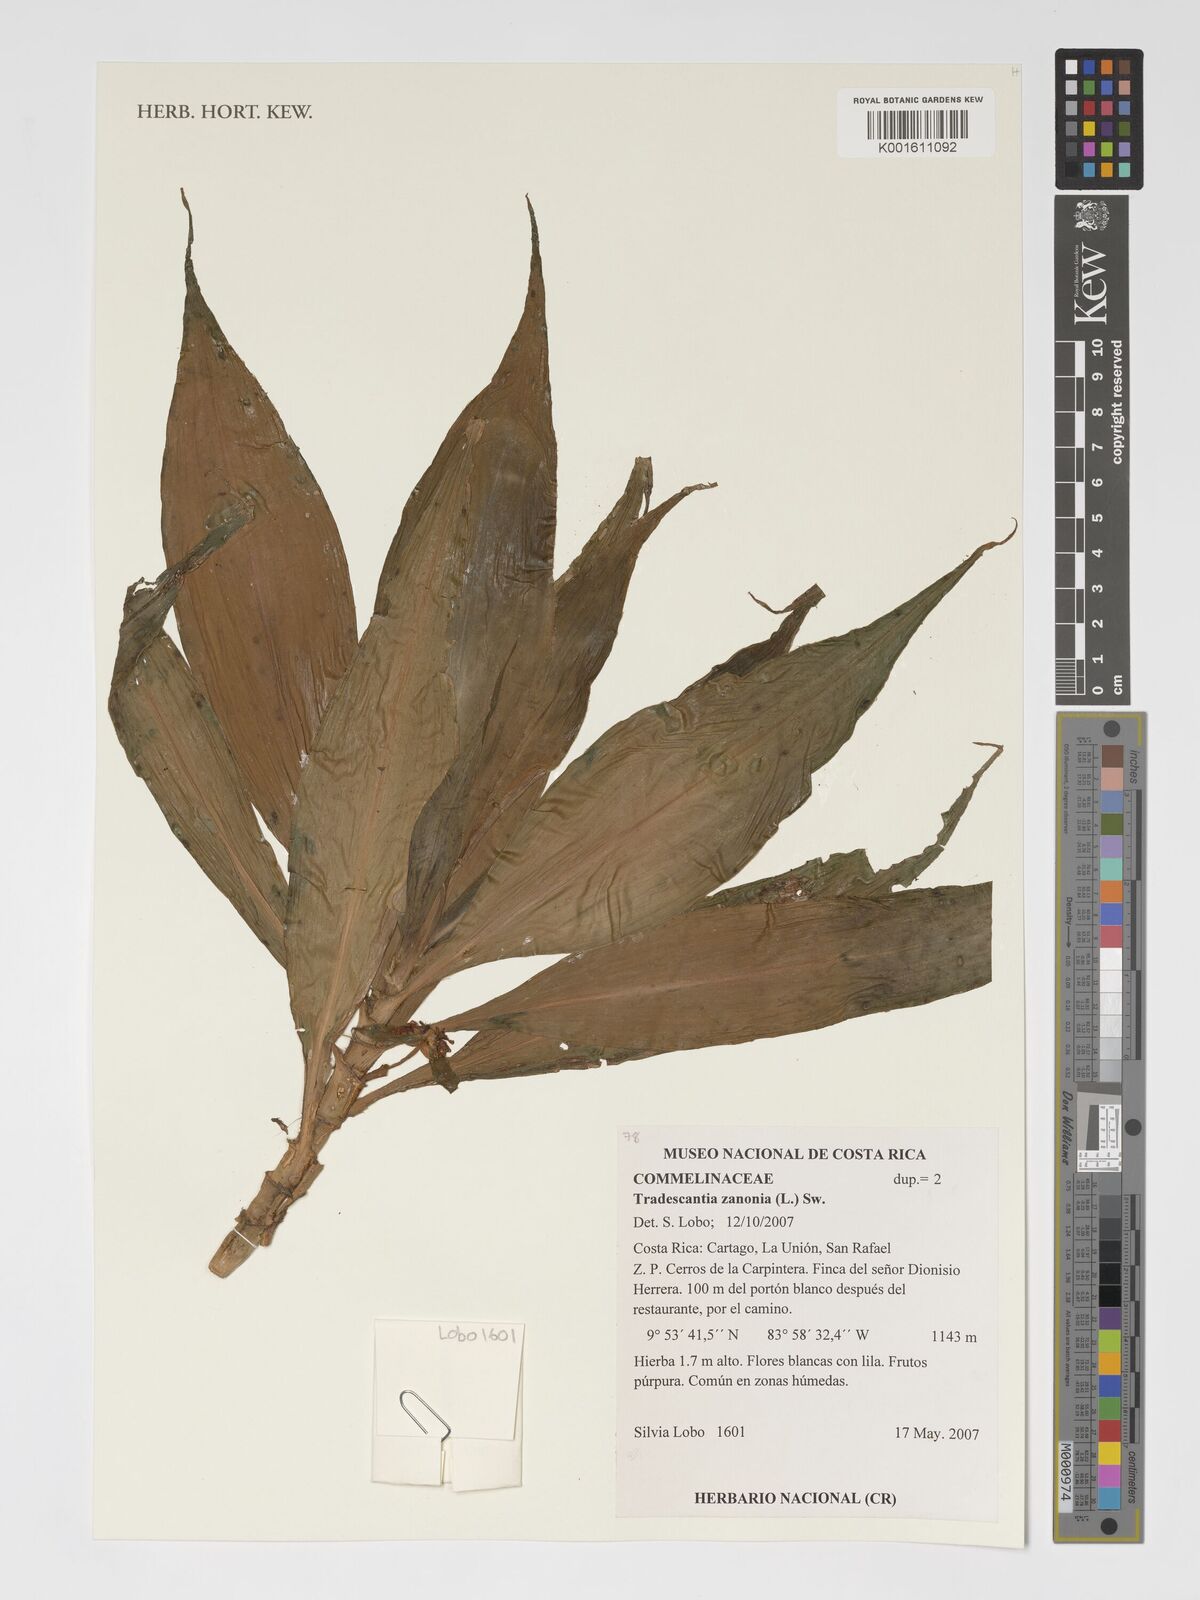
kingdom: Plantae
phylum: Tracheophyta
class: Liliopsida
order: Commelinales
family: Commelinaceae
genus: Tradescantia
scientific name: Tradescantia zanonia
